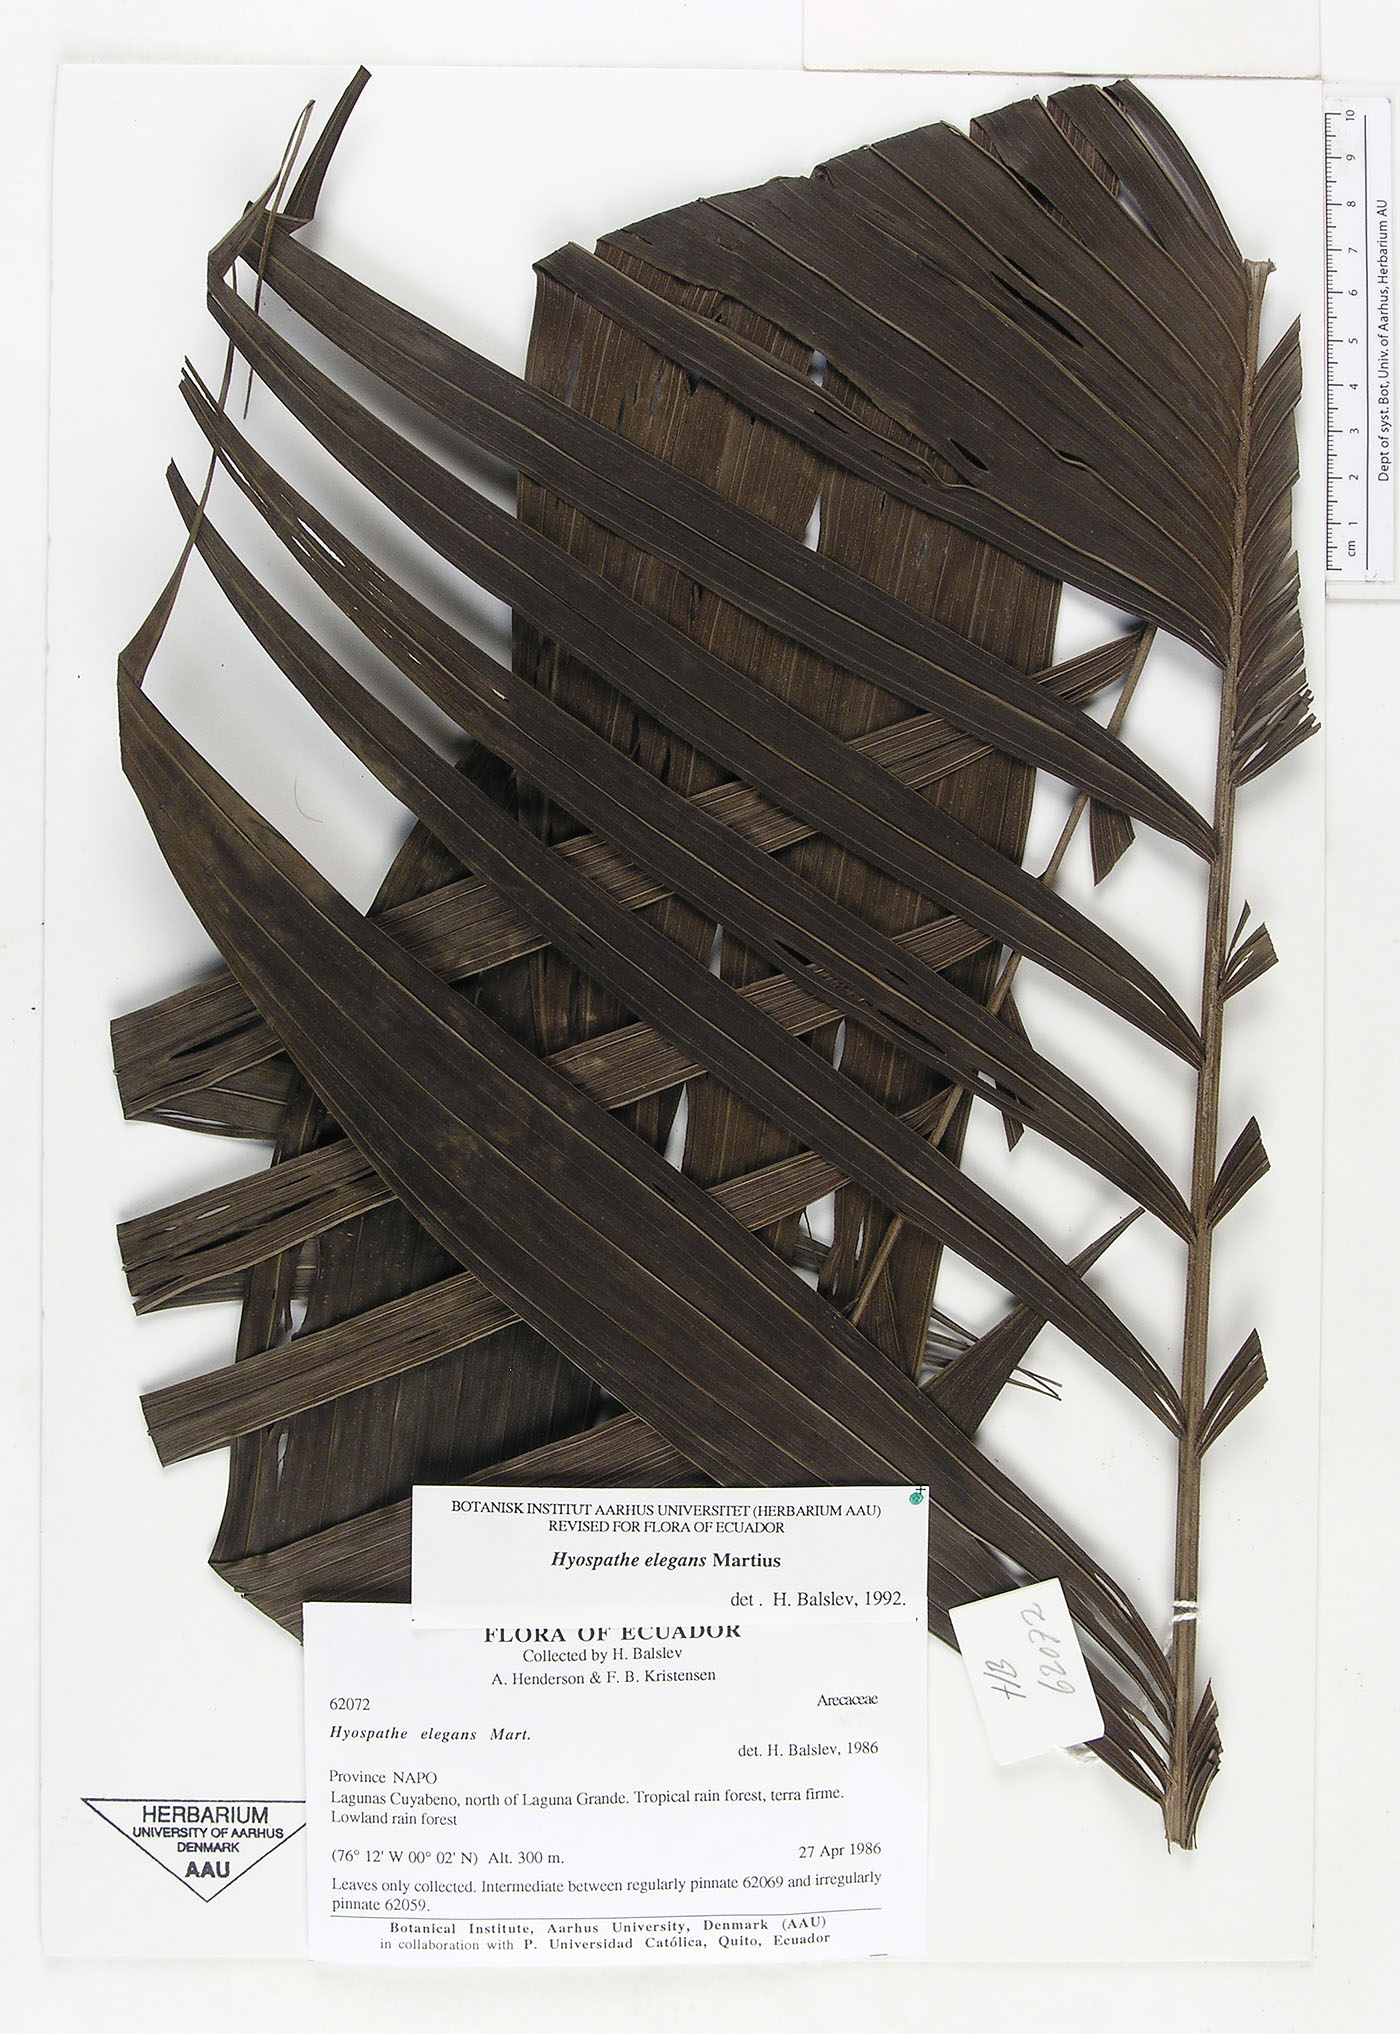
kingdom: Plantae
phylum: Tracheophyta
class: Liliopsida
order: Arecales
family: Arecaceae
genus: Hyospathe
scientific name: Hyospathe elegans
